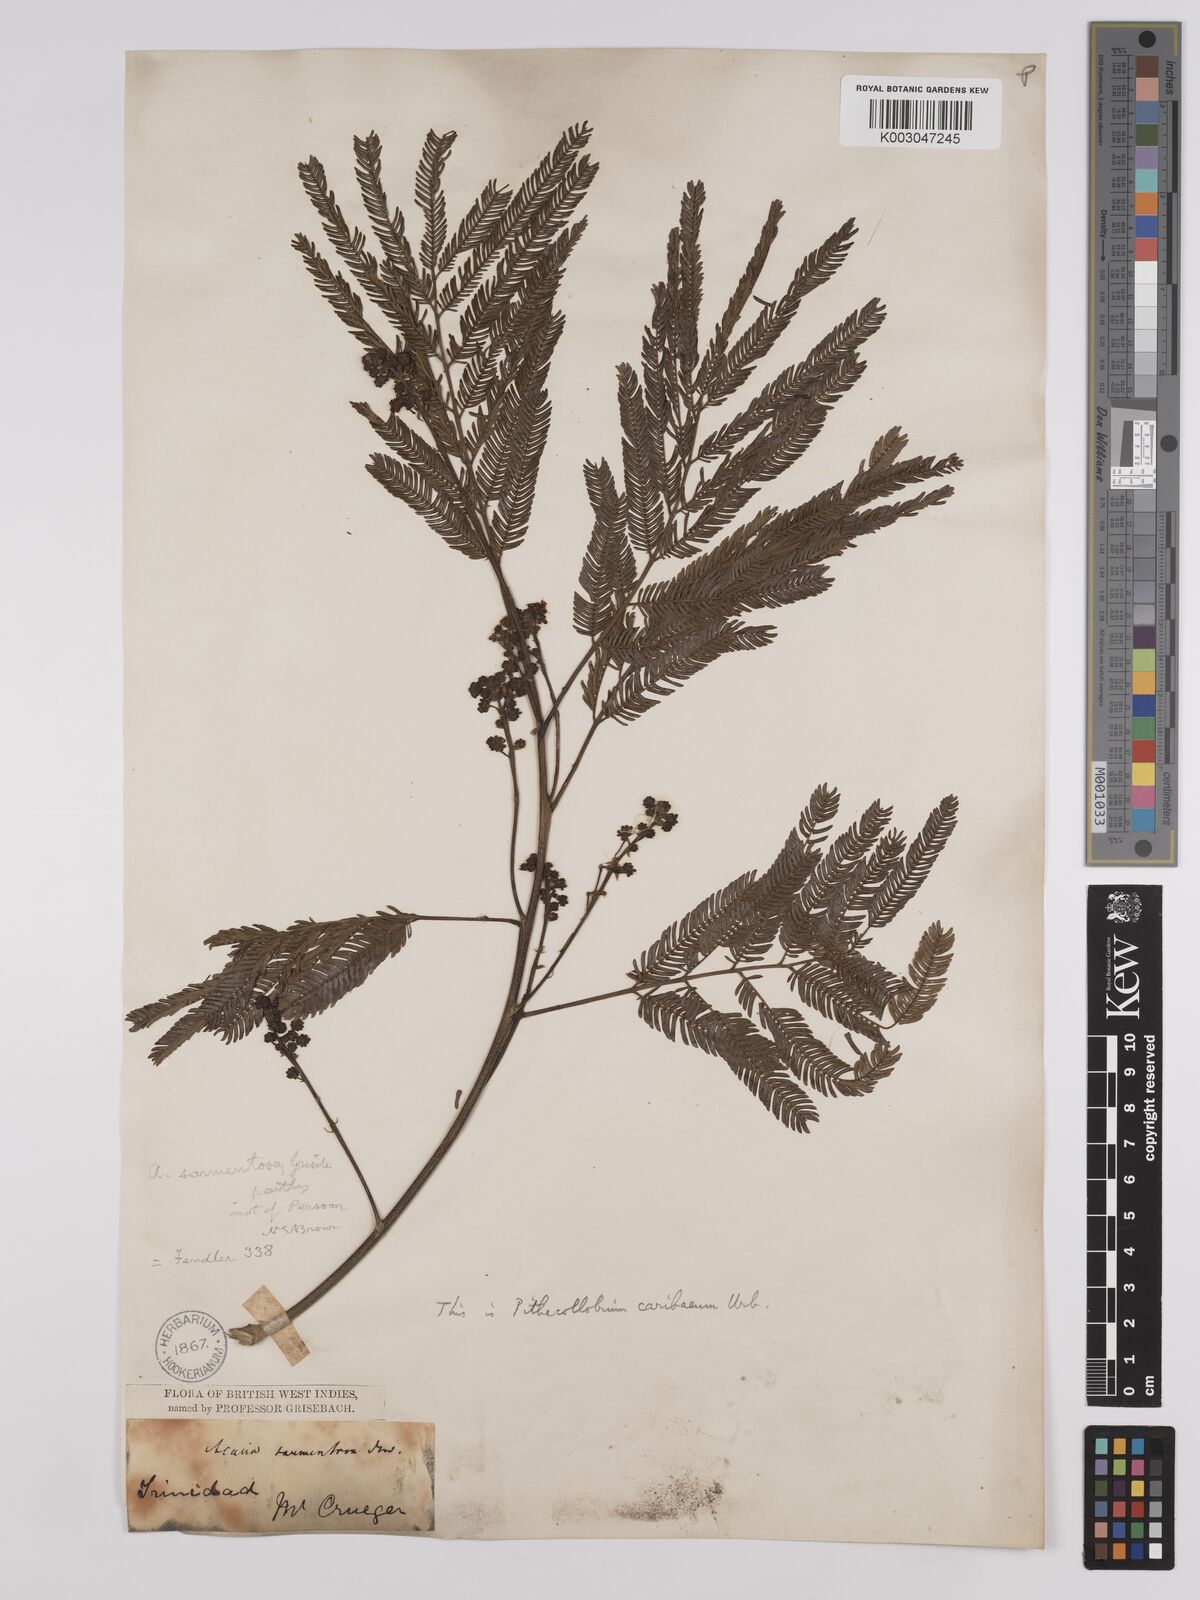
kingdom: Plantae
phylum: Tracheophyta
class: Magnoliopsida
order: Fabales
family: Fabaceae
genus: Albizia
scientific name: Albizia niopoides
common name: Silk tree
